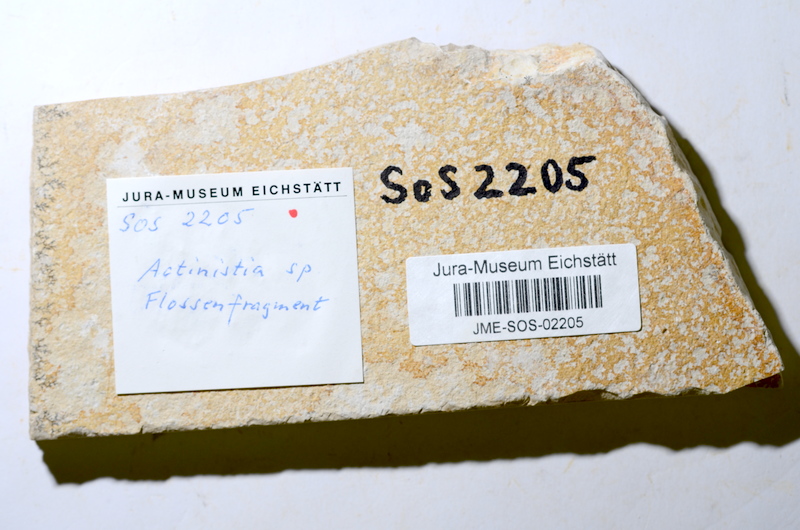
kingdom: Animalia
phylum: Chordata
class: Coelacanthi
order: Coelacanthiformes
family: Coelacanthidae
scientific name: Coelacanthidae
